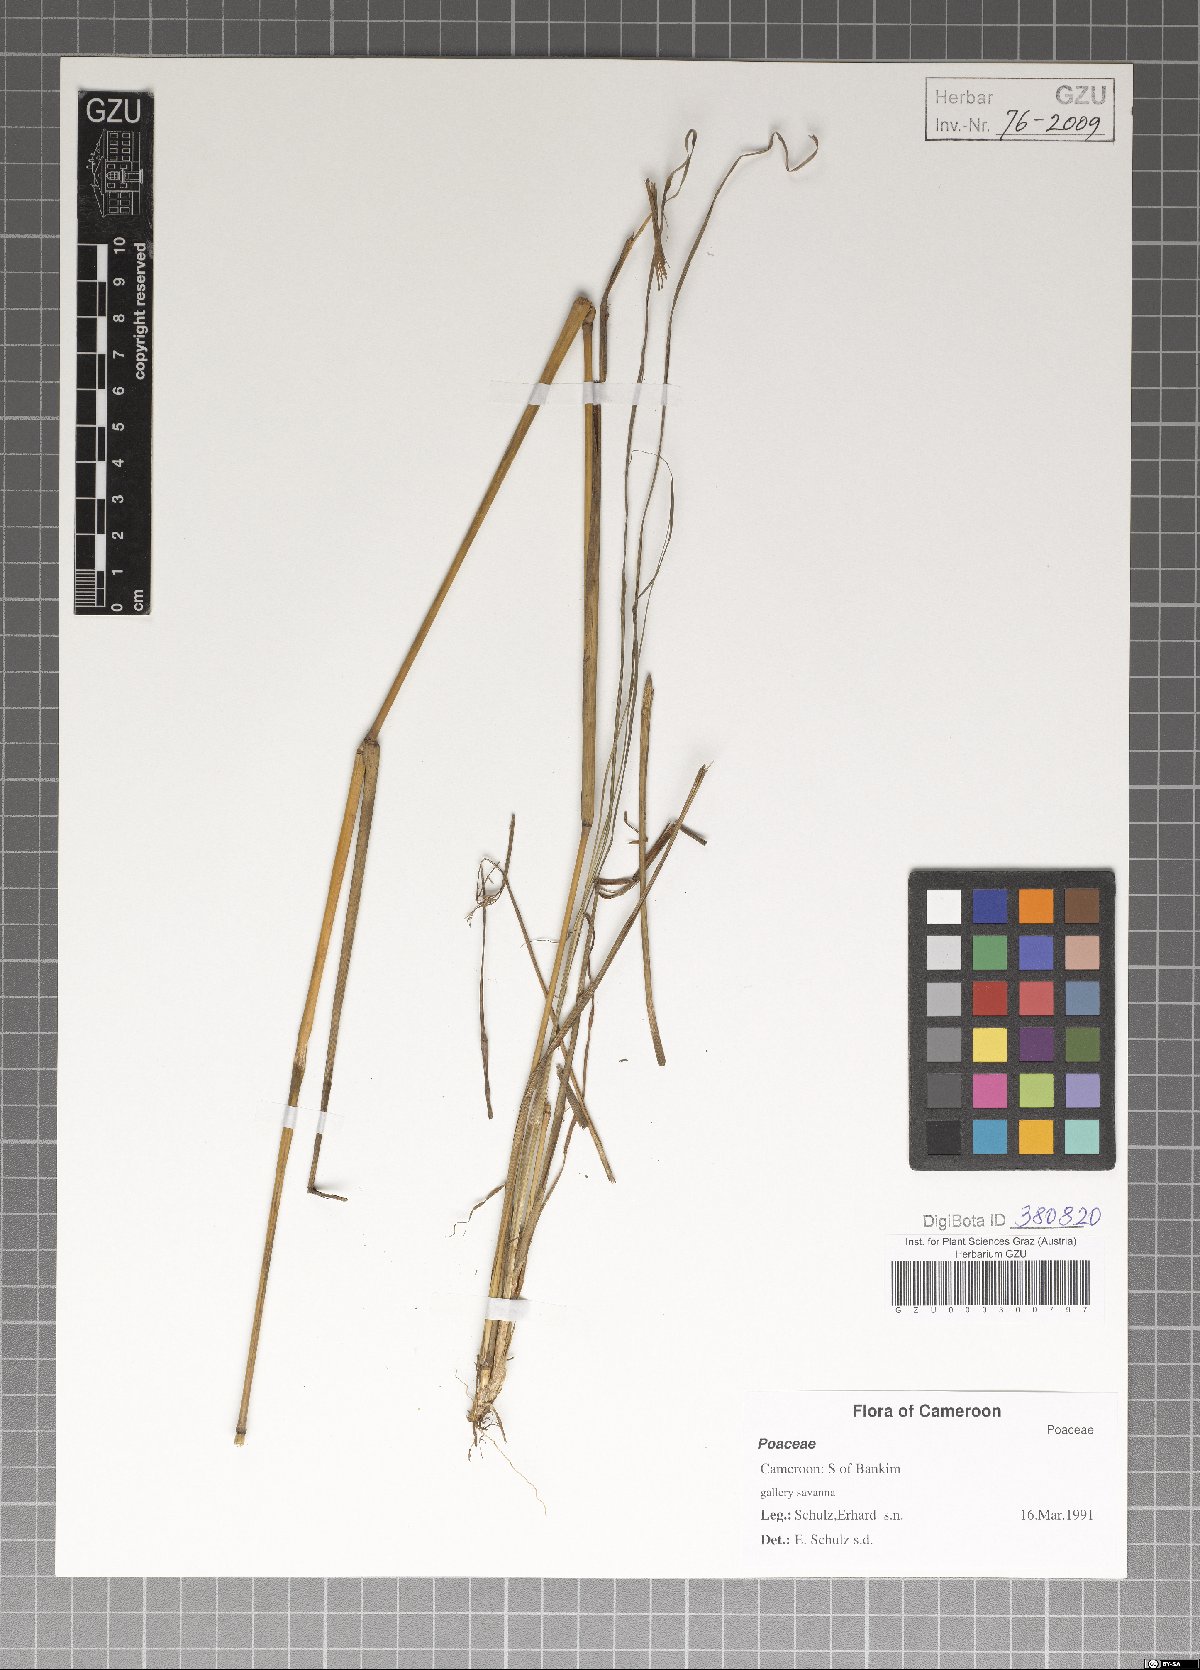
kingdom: Plantae
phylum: Tracheophyta
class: Liliopsida
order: Poales
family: Poaceae
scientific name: Poaceae
